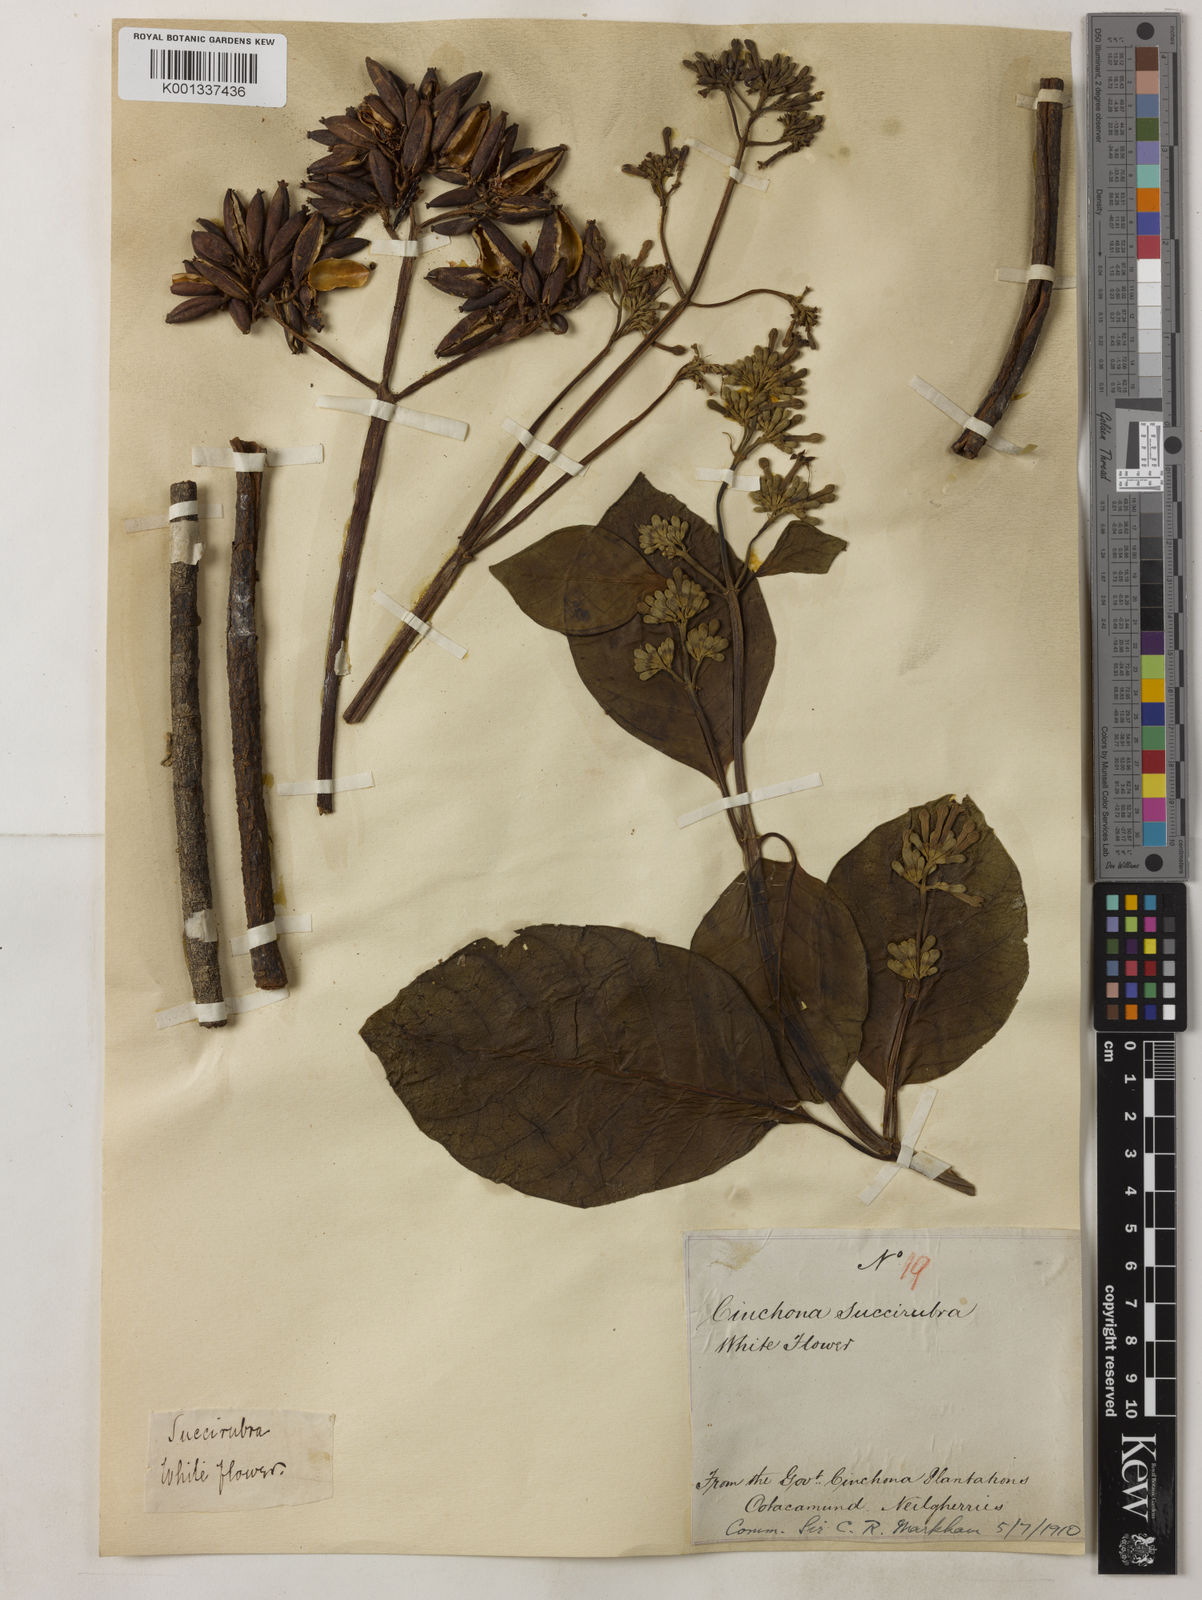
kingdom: Plantae
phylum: Tracheophyta
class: Magnoliopsida
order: Gentianales
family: Rubiaceae
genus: Cinchona
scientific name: Cinchona pubescens
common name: Quinine
